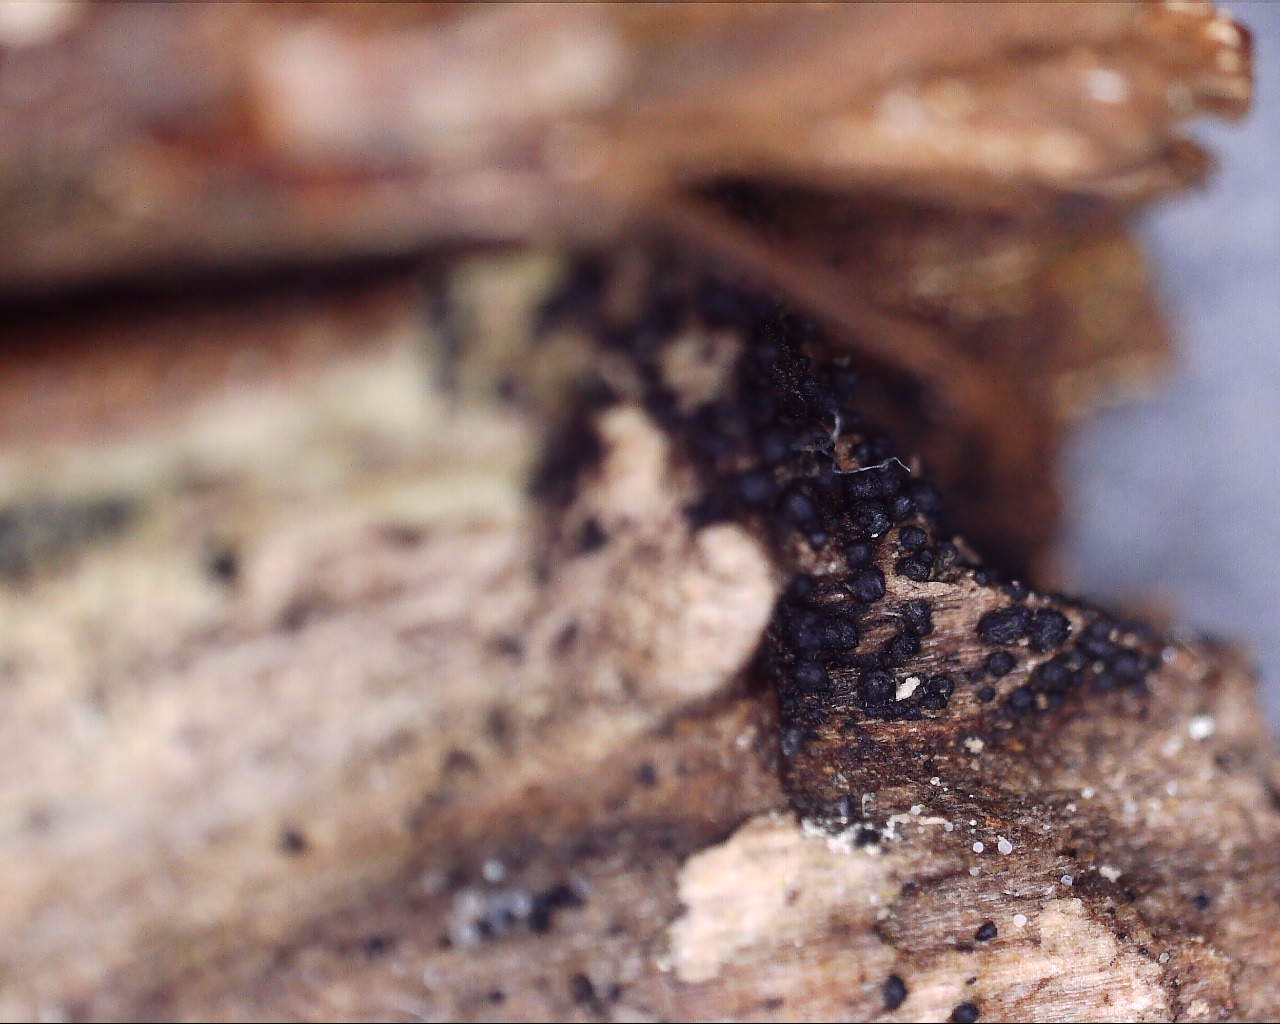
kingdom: Fungi
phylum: Ascomycota
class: Dothideomycetes
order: Pleosporales
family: Melanommataceae
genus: Melanomma
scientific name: Melanomma pulvis-pyrius
